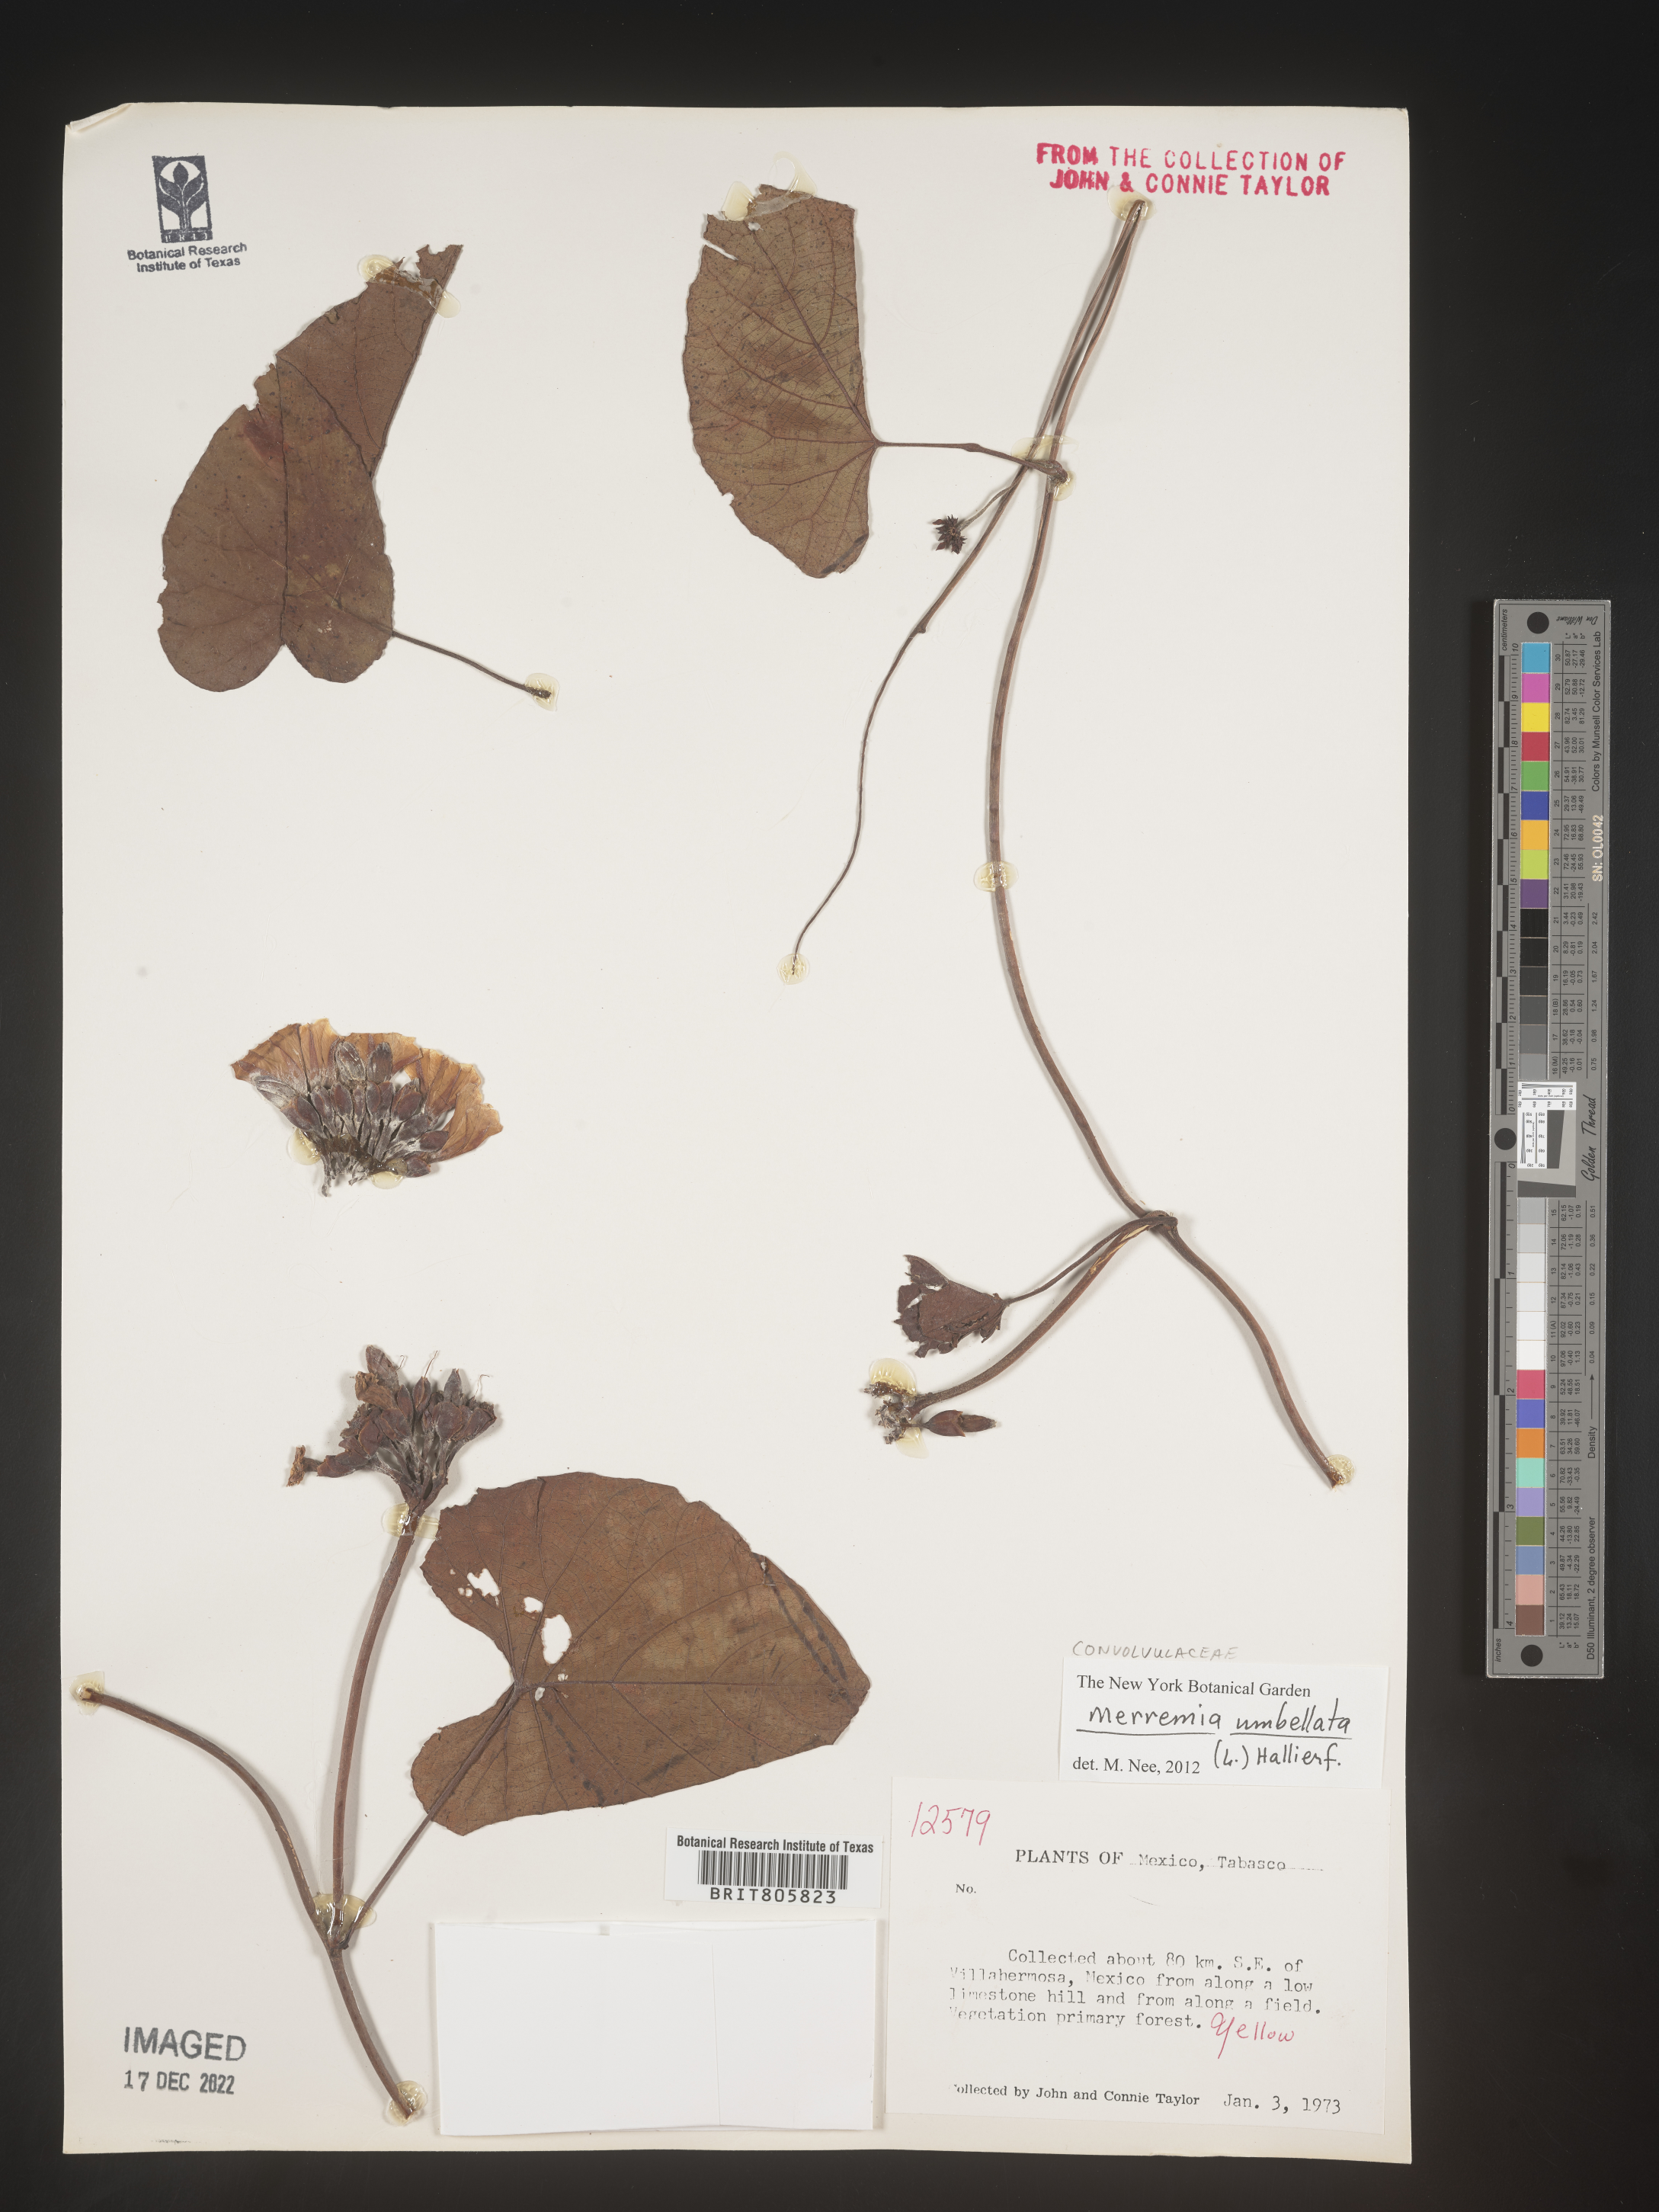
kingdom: Plantae
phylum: Tracheophyta
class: Magnoliopsida
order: Solanales
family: Convolvulaceae
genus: Merremia
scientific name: Merremia
